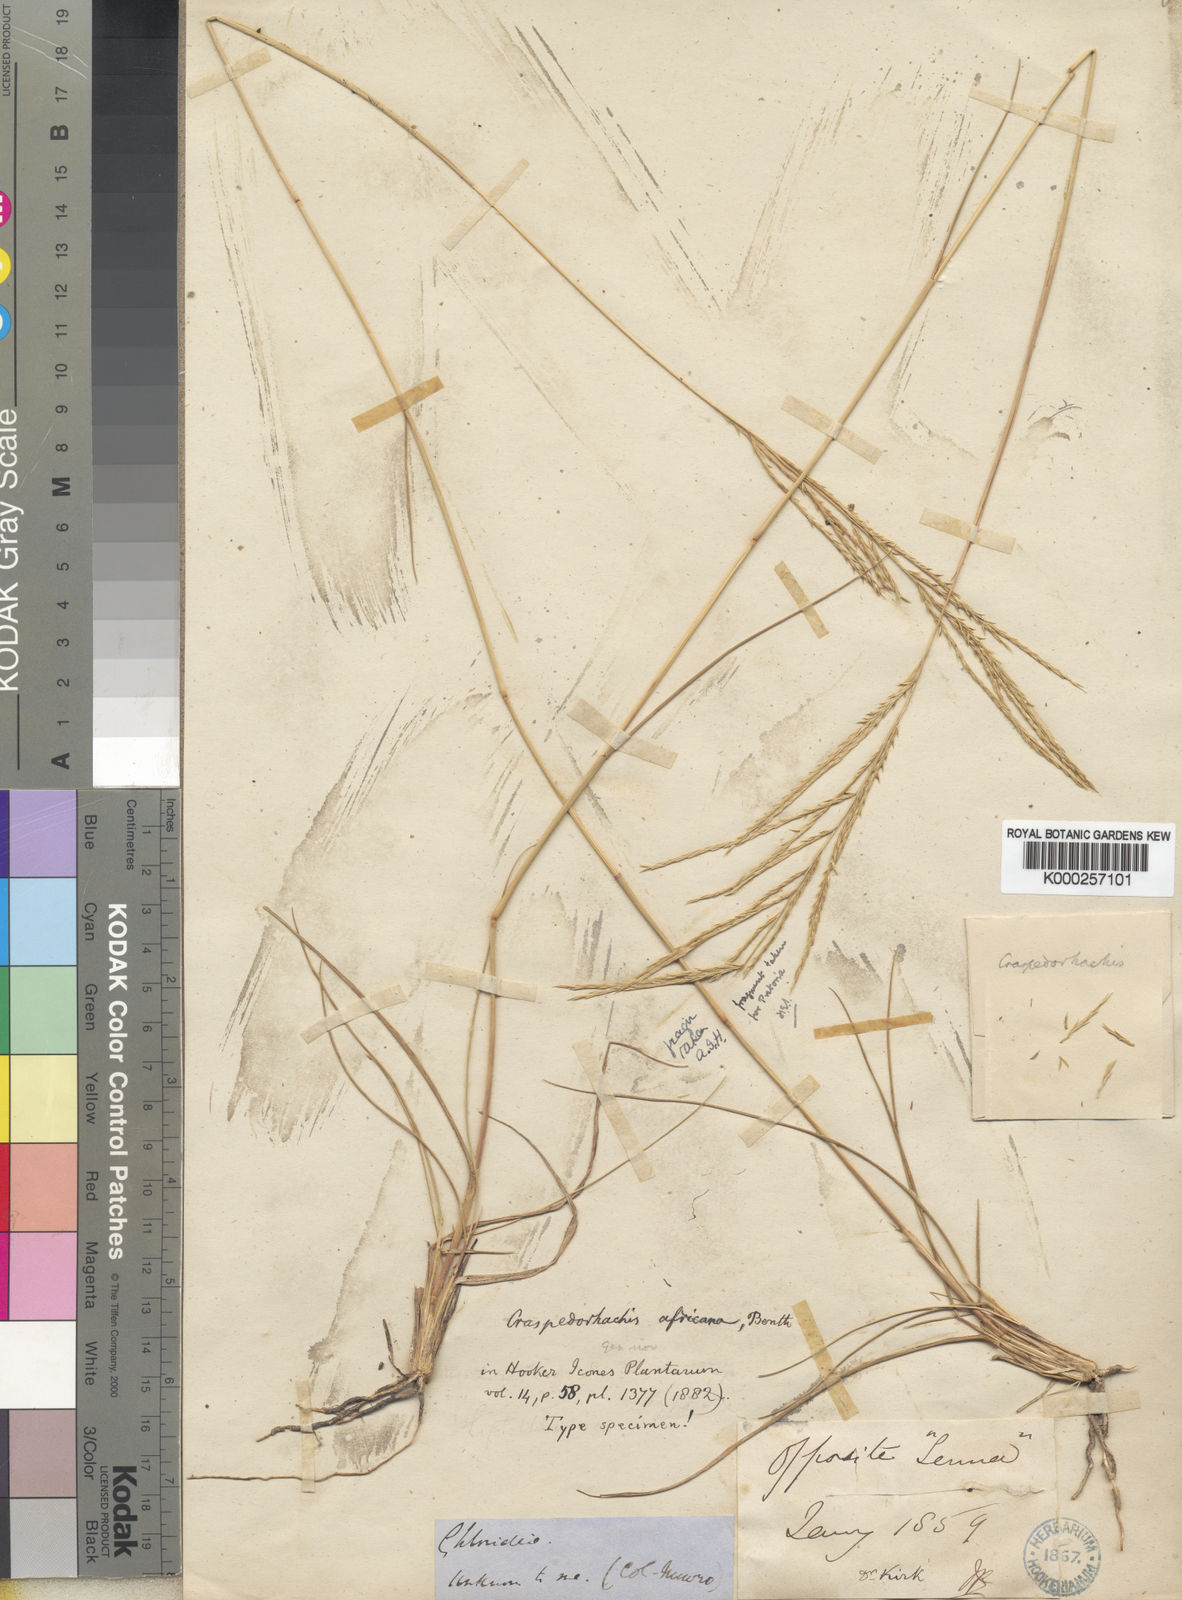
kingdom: Plantae
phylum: Tracheophyta
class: Liliopsida
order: Poales
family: Poaceae
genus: Craspedorhachis
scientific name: Craspedorhachis africana
